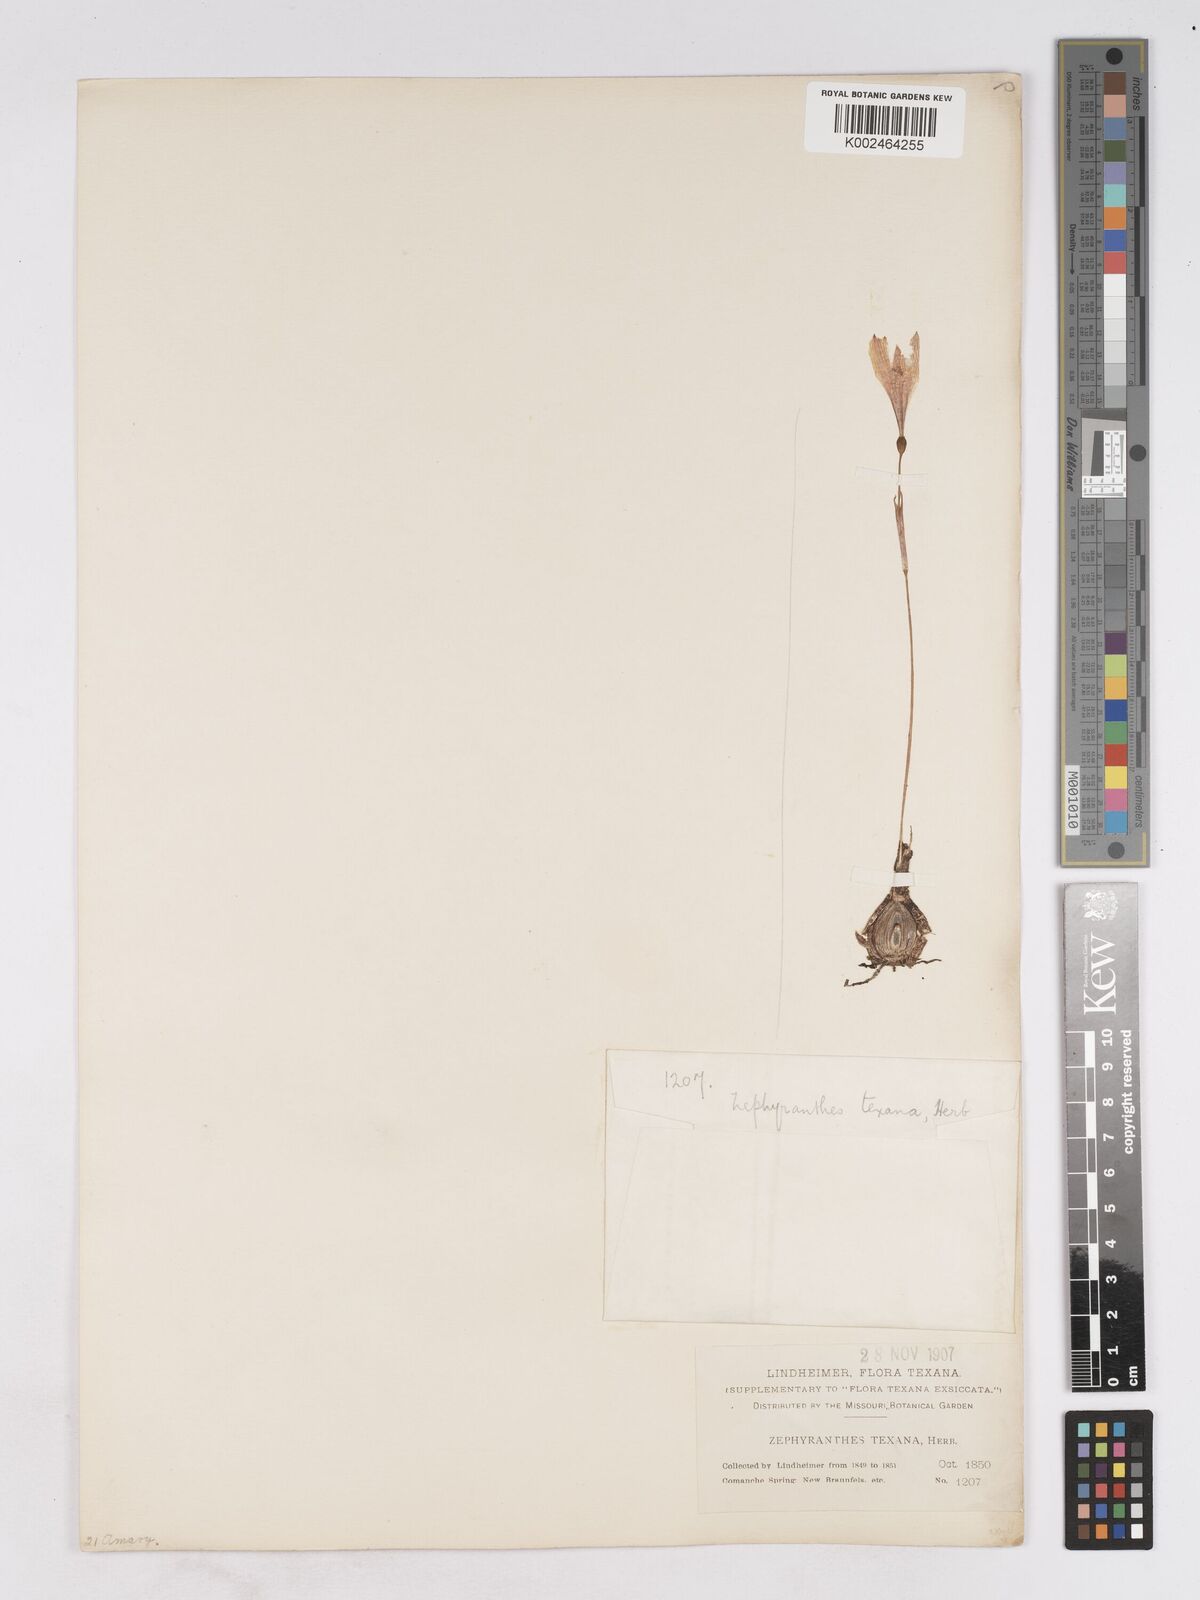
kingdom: Plantae
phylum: Tracheophyta
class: Liliopsida
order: Asparagales
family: Amaryllidaceae
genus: Zephyranthes
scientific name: Zephyranthes tubispatha
